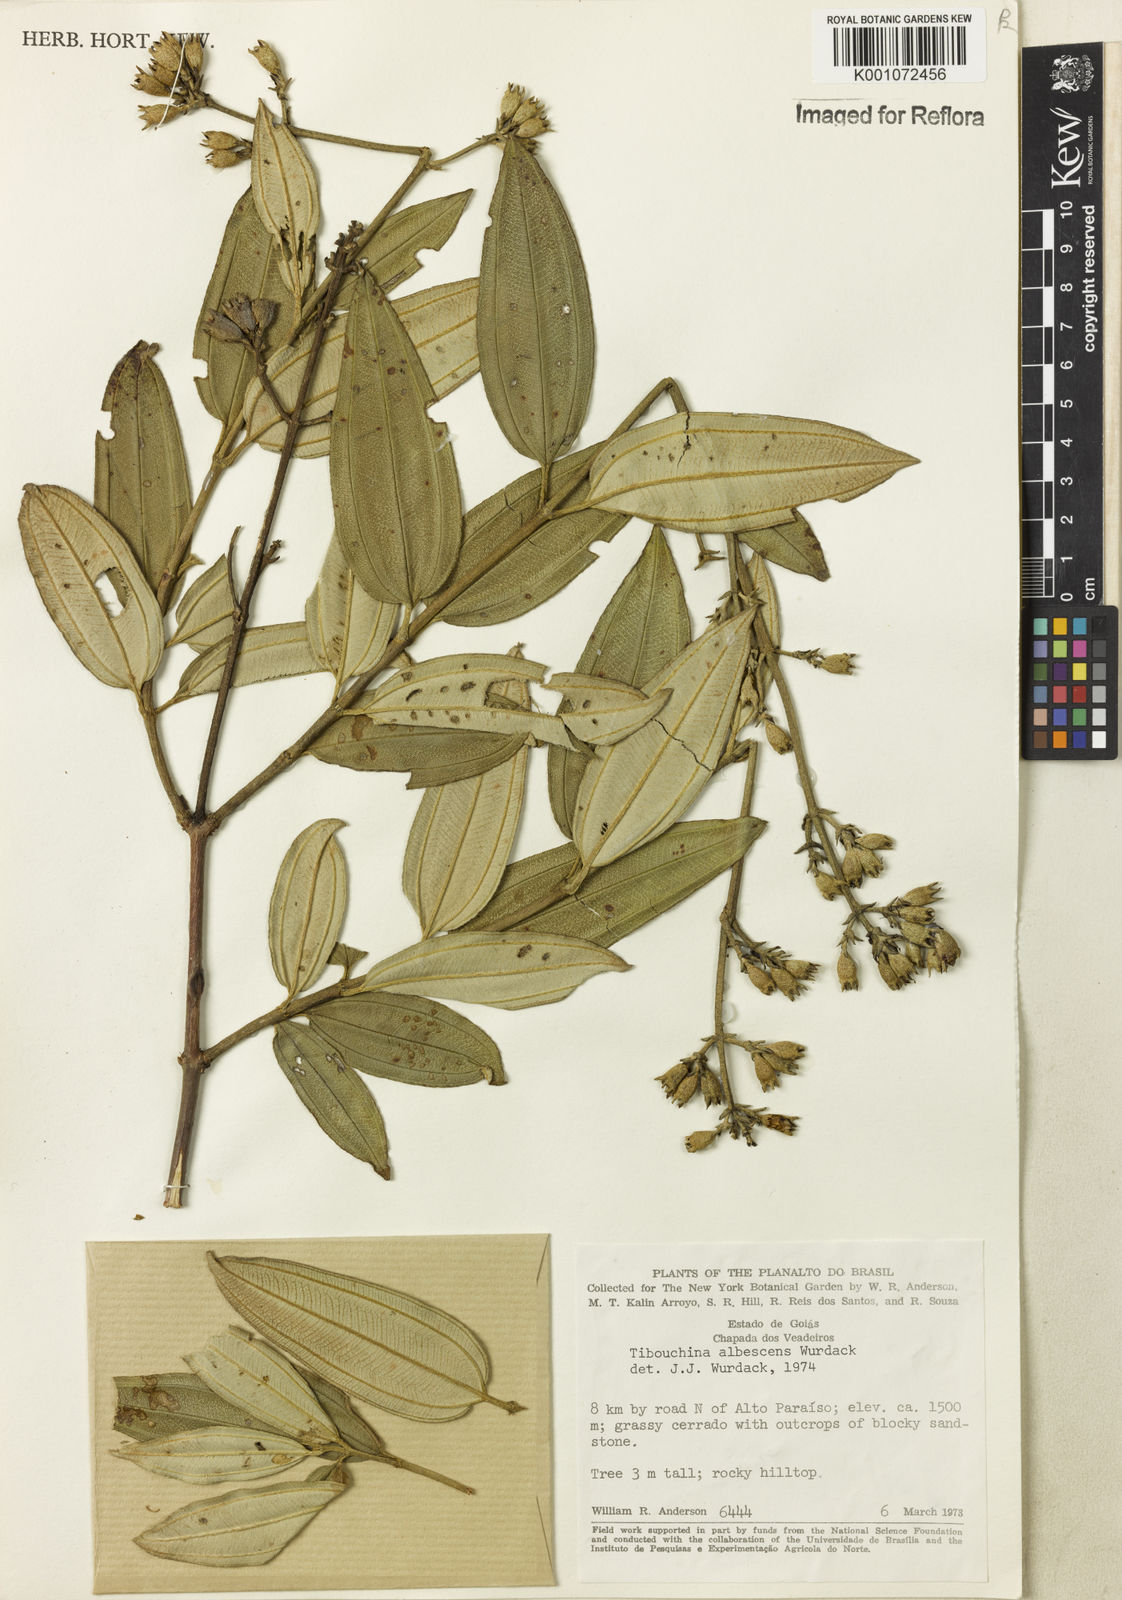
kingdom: Plantae
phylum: Tracheophyta
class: Magnoliopsida
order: Myrtales
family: Melastomataceae
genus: Tibouchina
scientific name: Tibouchina
